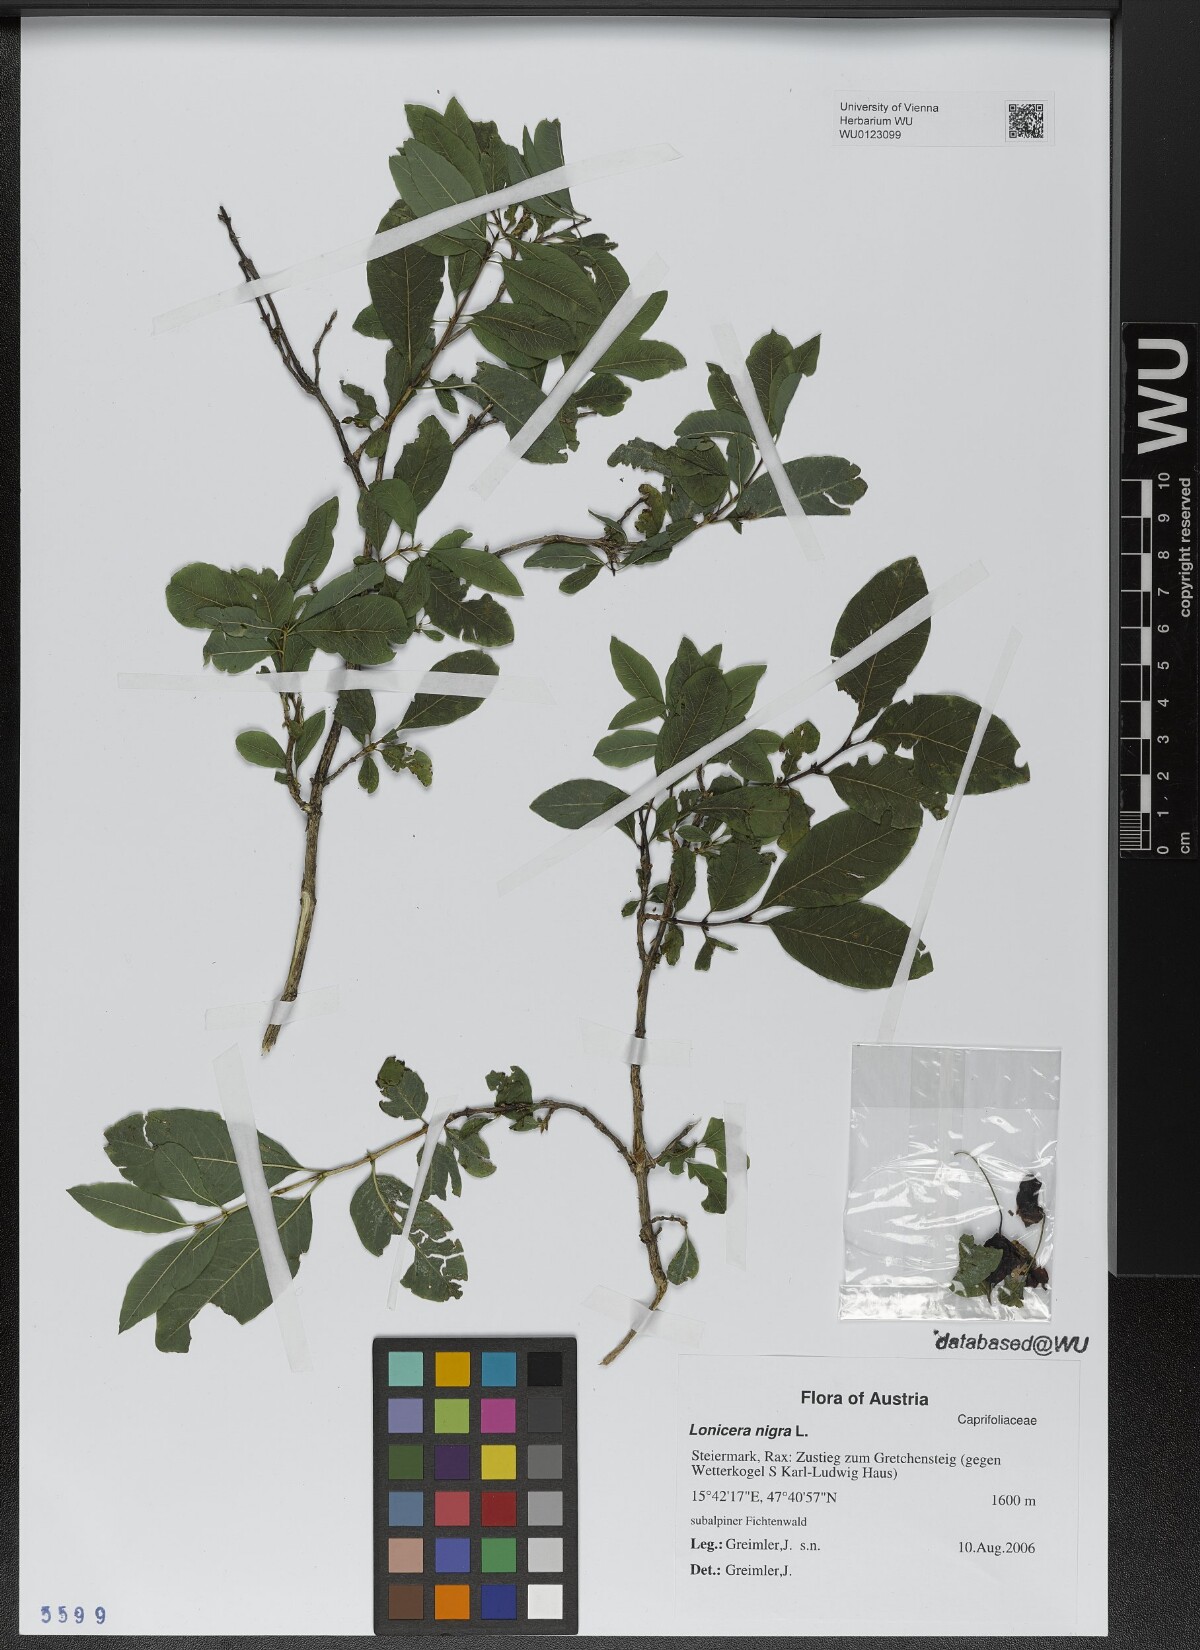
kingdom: Plantae
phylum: Tracheophyta
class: Magnoliopsida
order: Dipsacales
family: Caprifoliaceae
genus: Lonicera
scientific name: Lonicera nigra
